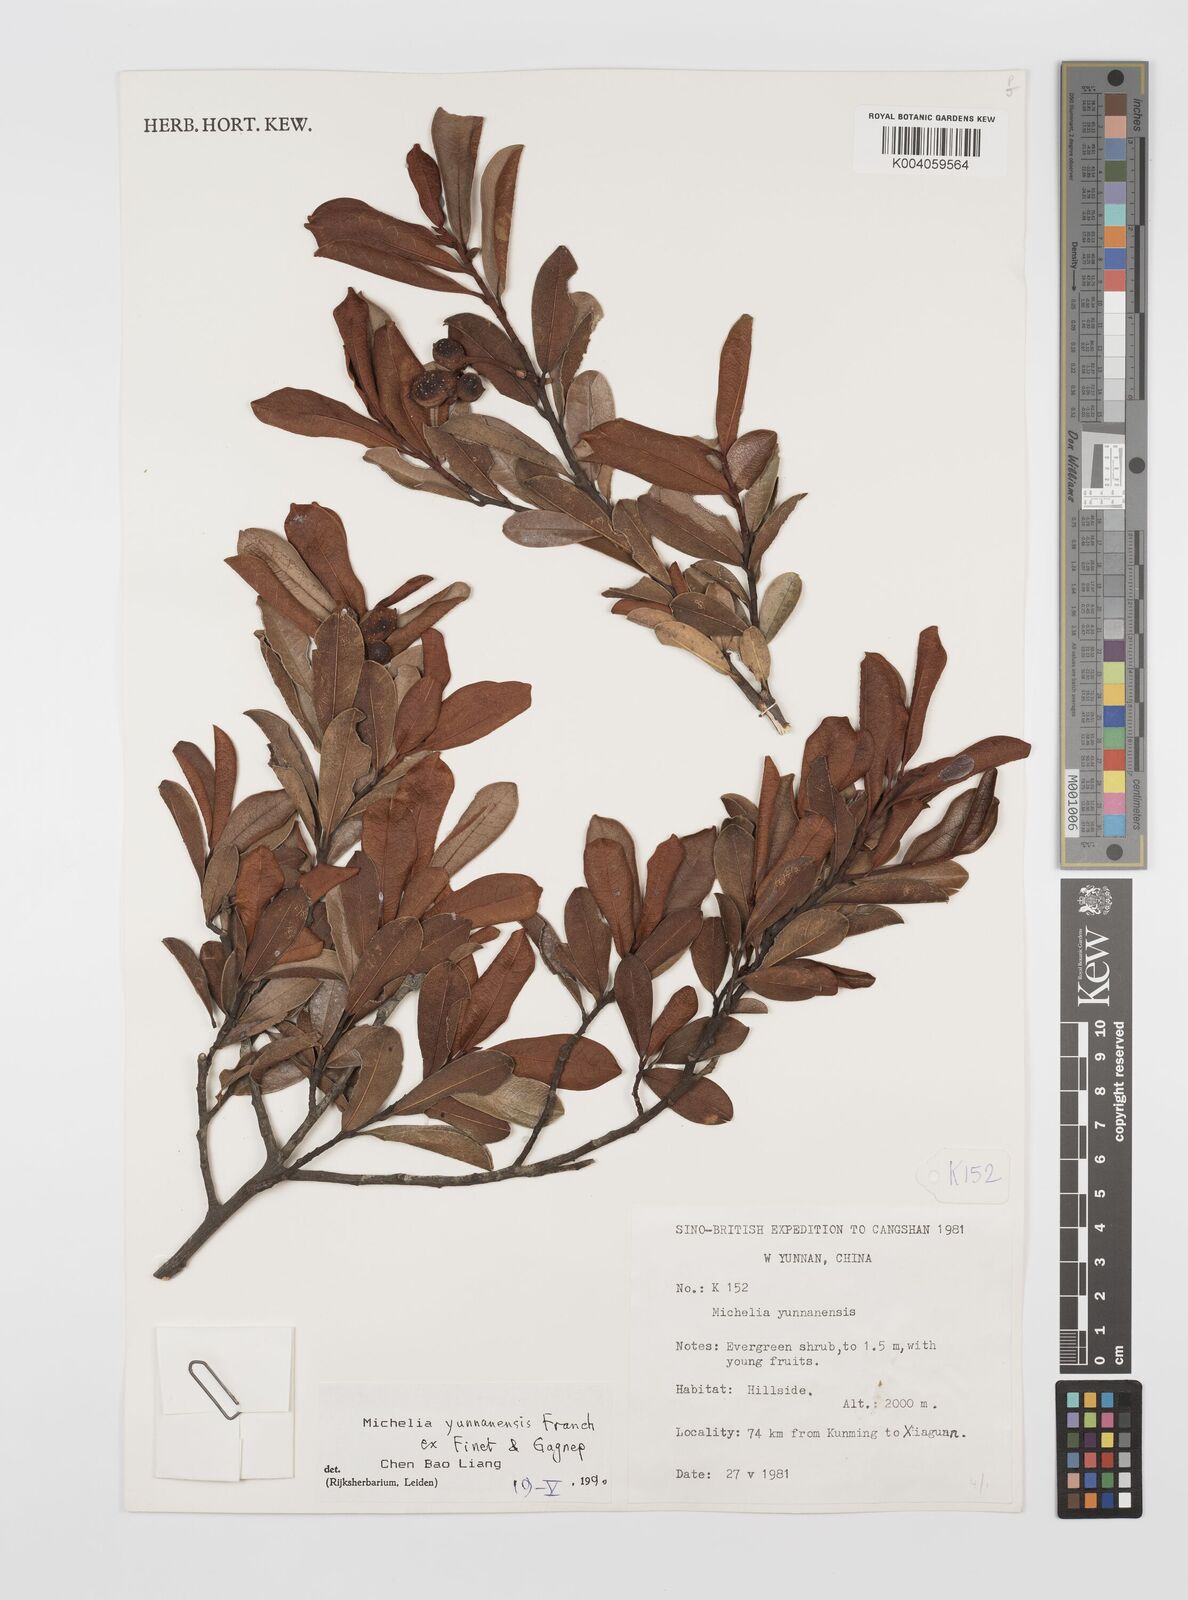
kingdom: Plantae
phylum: Tracheophyta
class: Magnoliopsida
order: Magnoliales
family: Magnoliaceae
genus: Magnolia
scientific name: Magnolia laevifolia
